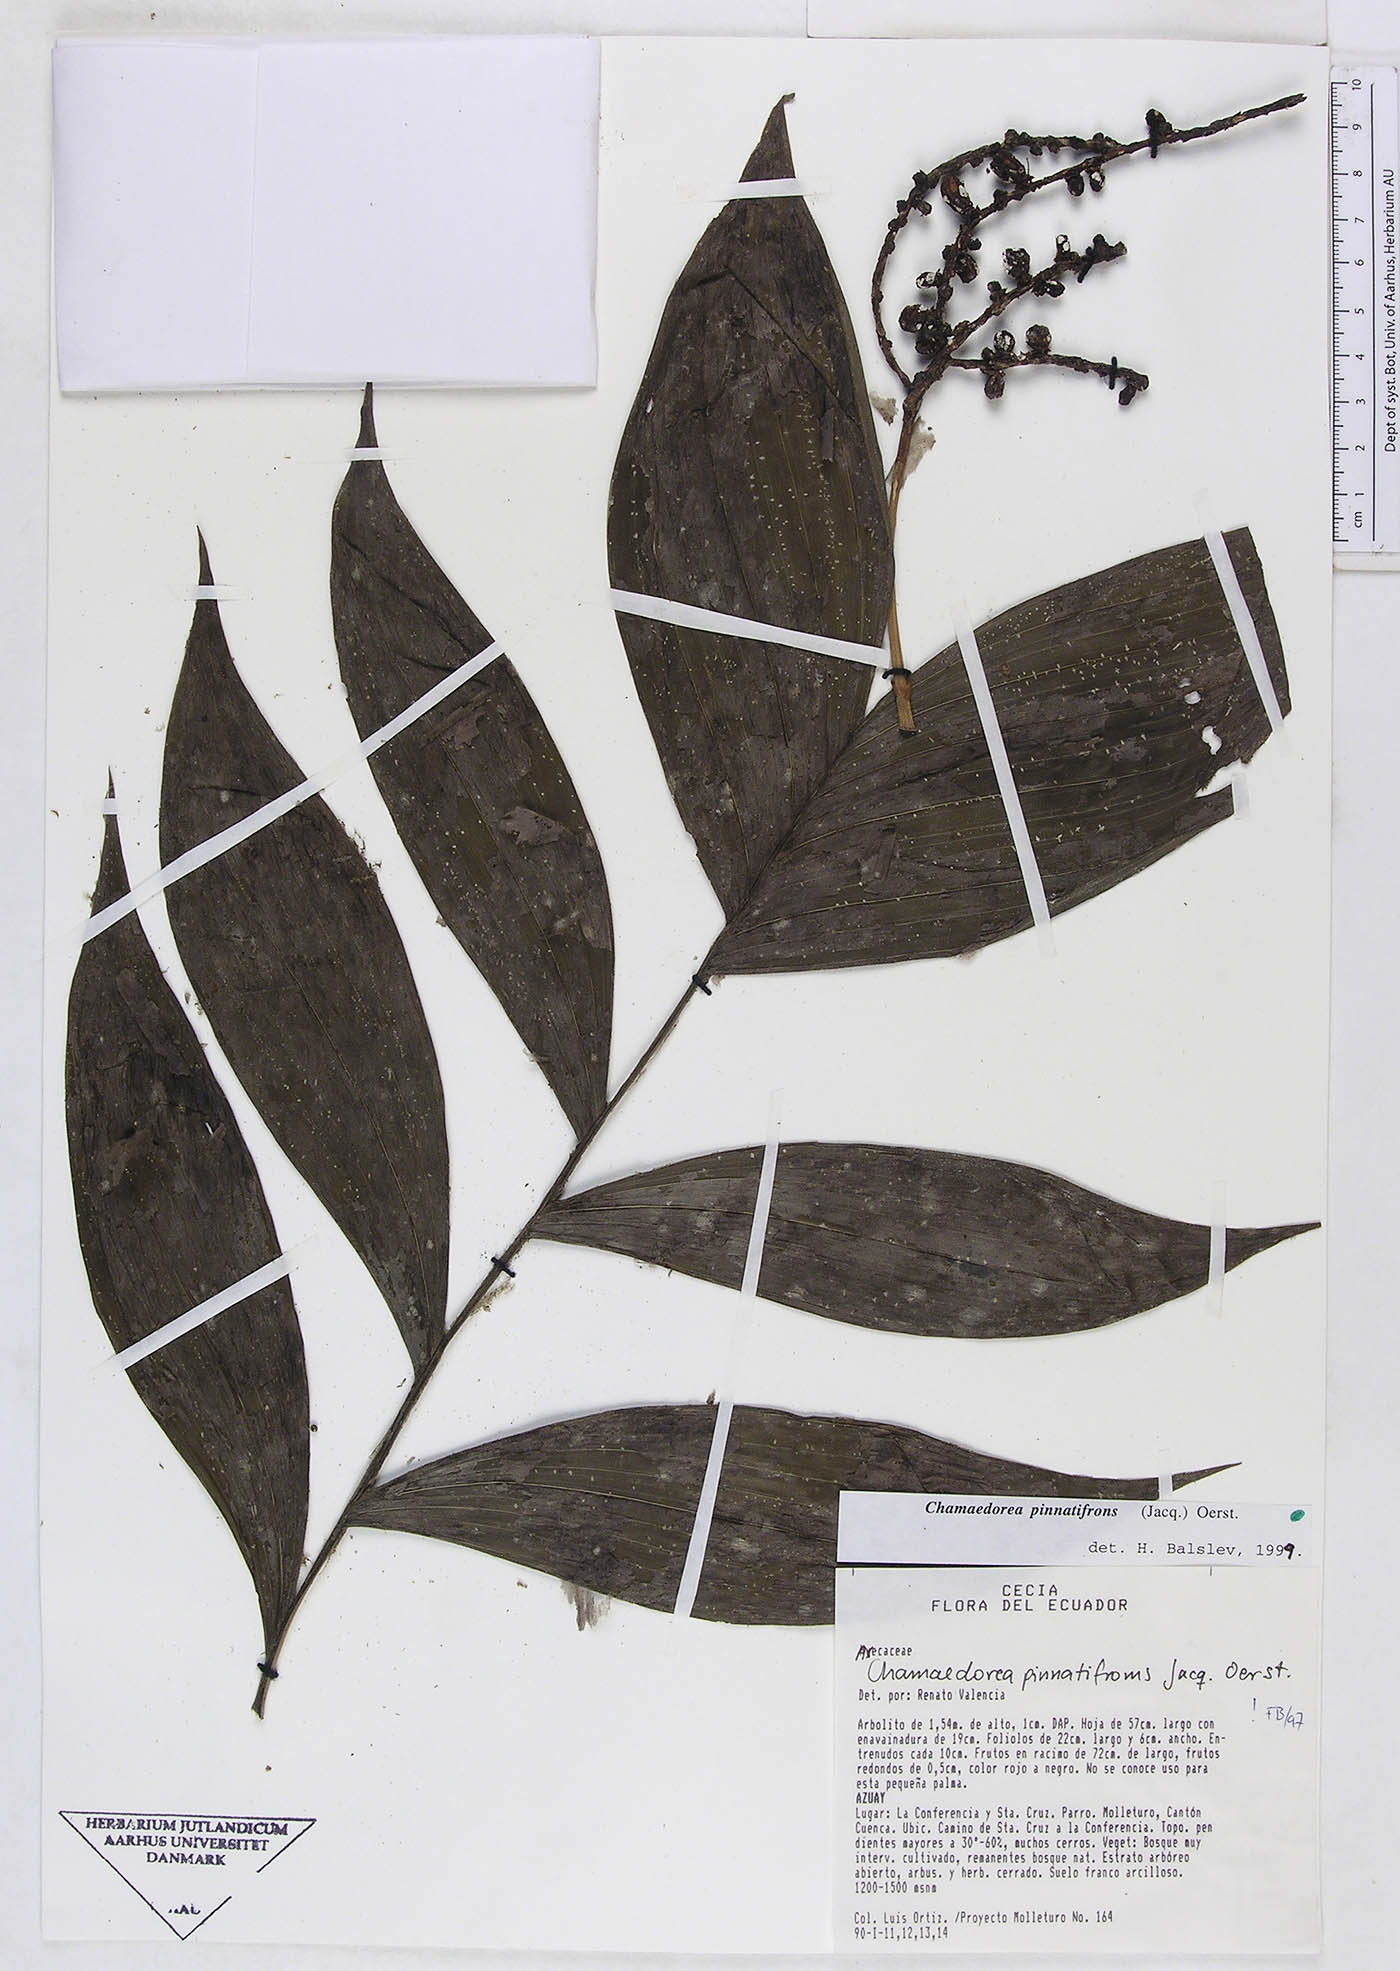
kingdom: Plantae
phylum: Tracheophyta
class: Liliopsida
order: Arecales
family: Arecaceae
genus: Chamaedorea
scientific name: Chamaedorea pinnatifrons
